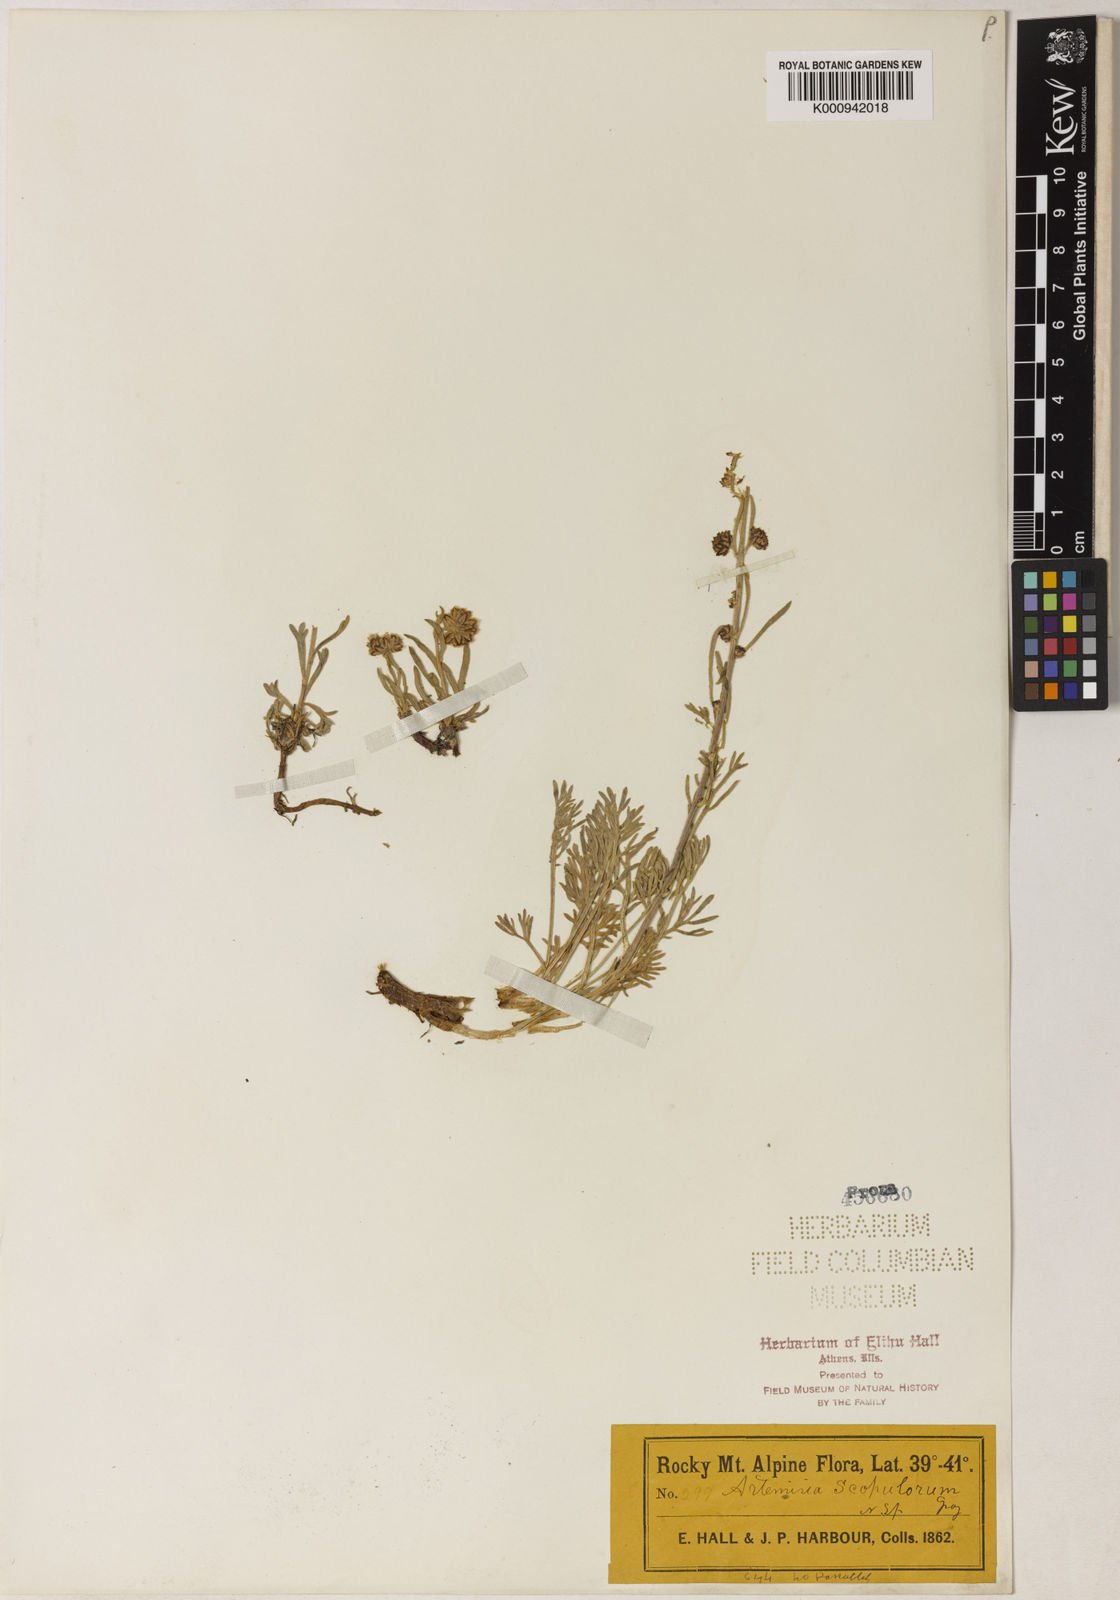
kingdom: Plantae
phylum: Tracheophyta
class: Magnoliopsida
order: Asterales
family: Asteraceae
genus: Artemisia
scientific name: Artemisia scopulorum
